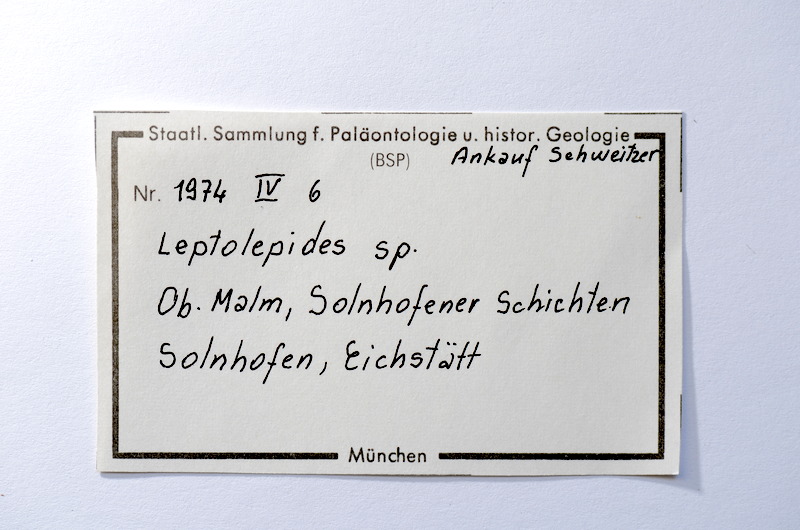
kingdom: Animalia
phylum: Chordata
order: Salmoniformes
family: Orthogonikleithridae
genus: Leptolepides
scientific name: Leptolepides sprattiformis
